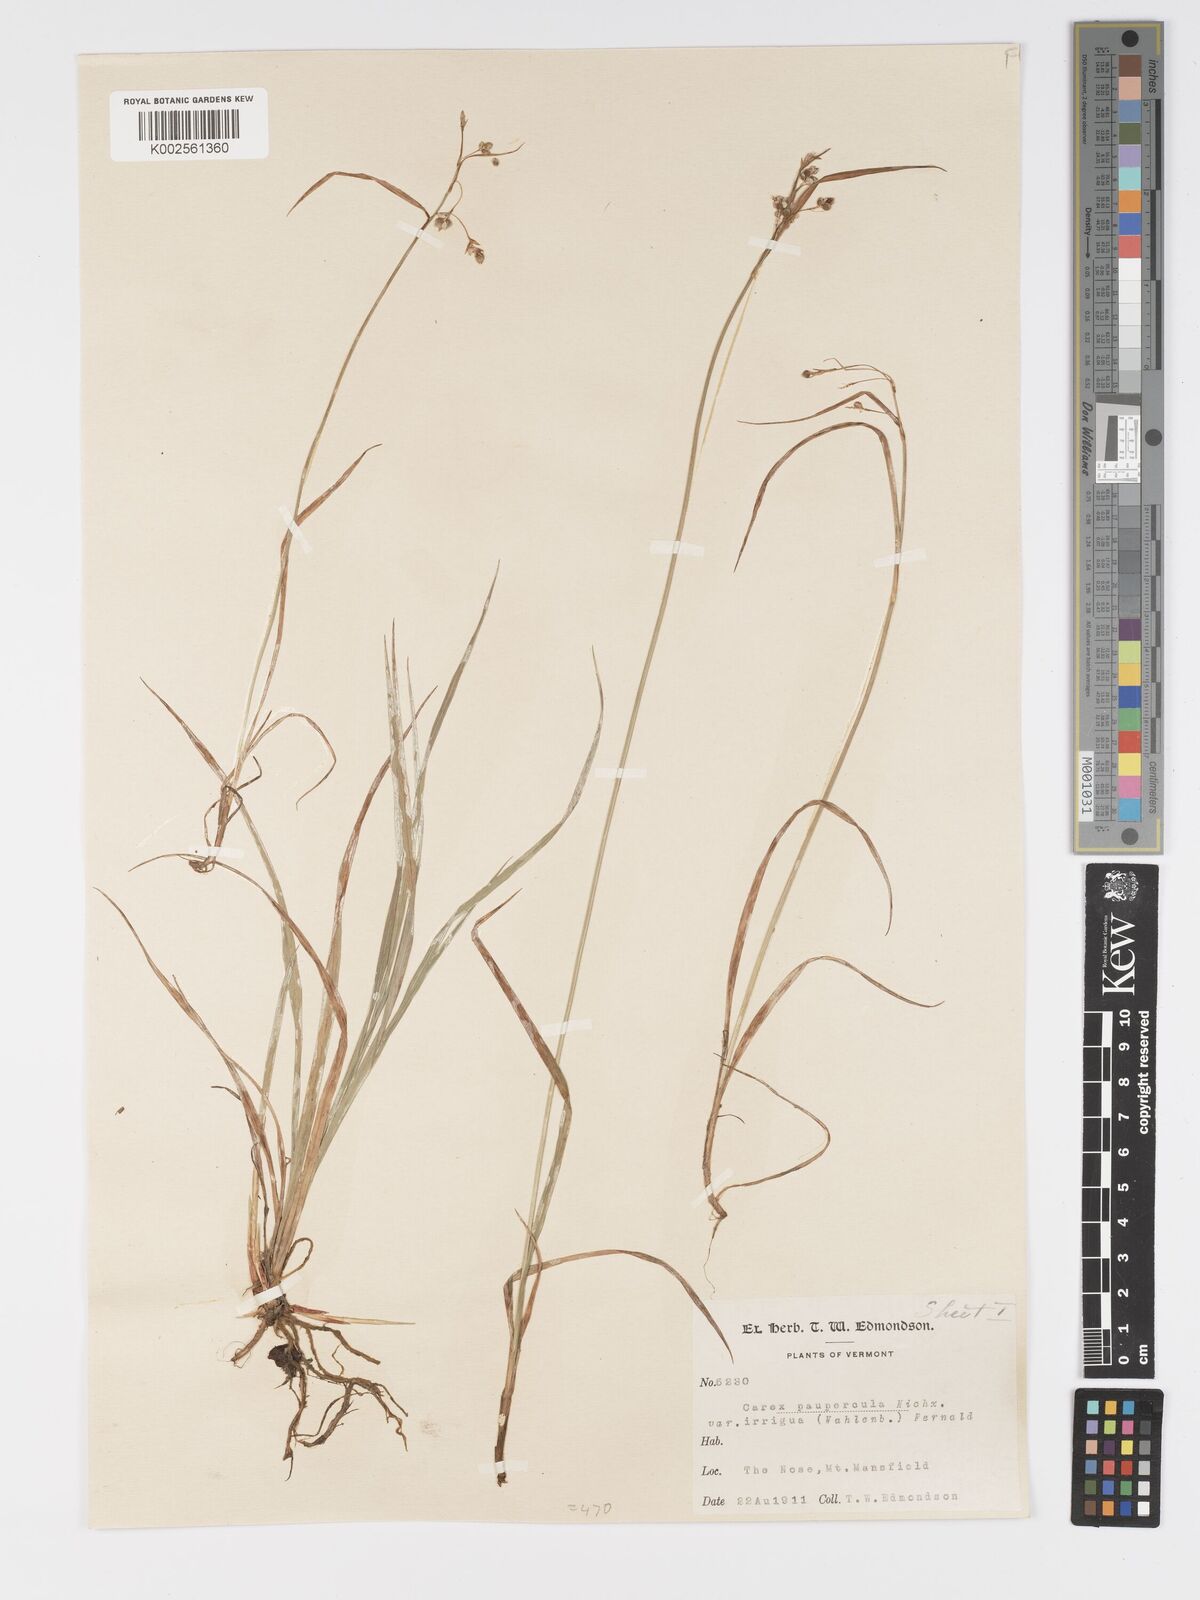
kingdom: Plantae
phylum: Tracheophyta
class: Liliopsida
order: Poales
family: Cyperaceae
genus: Carex
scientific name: Carex magellanica
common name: Bog sedge
